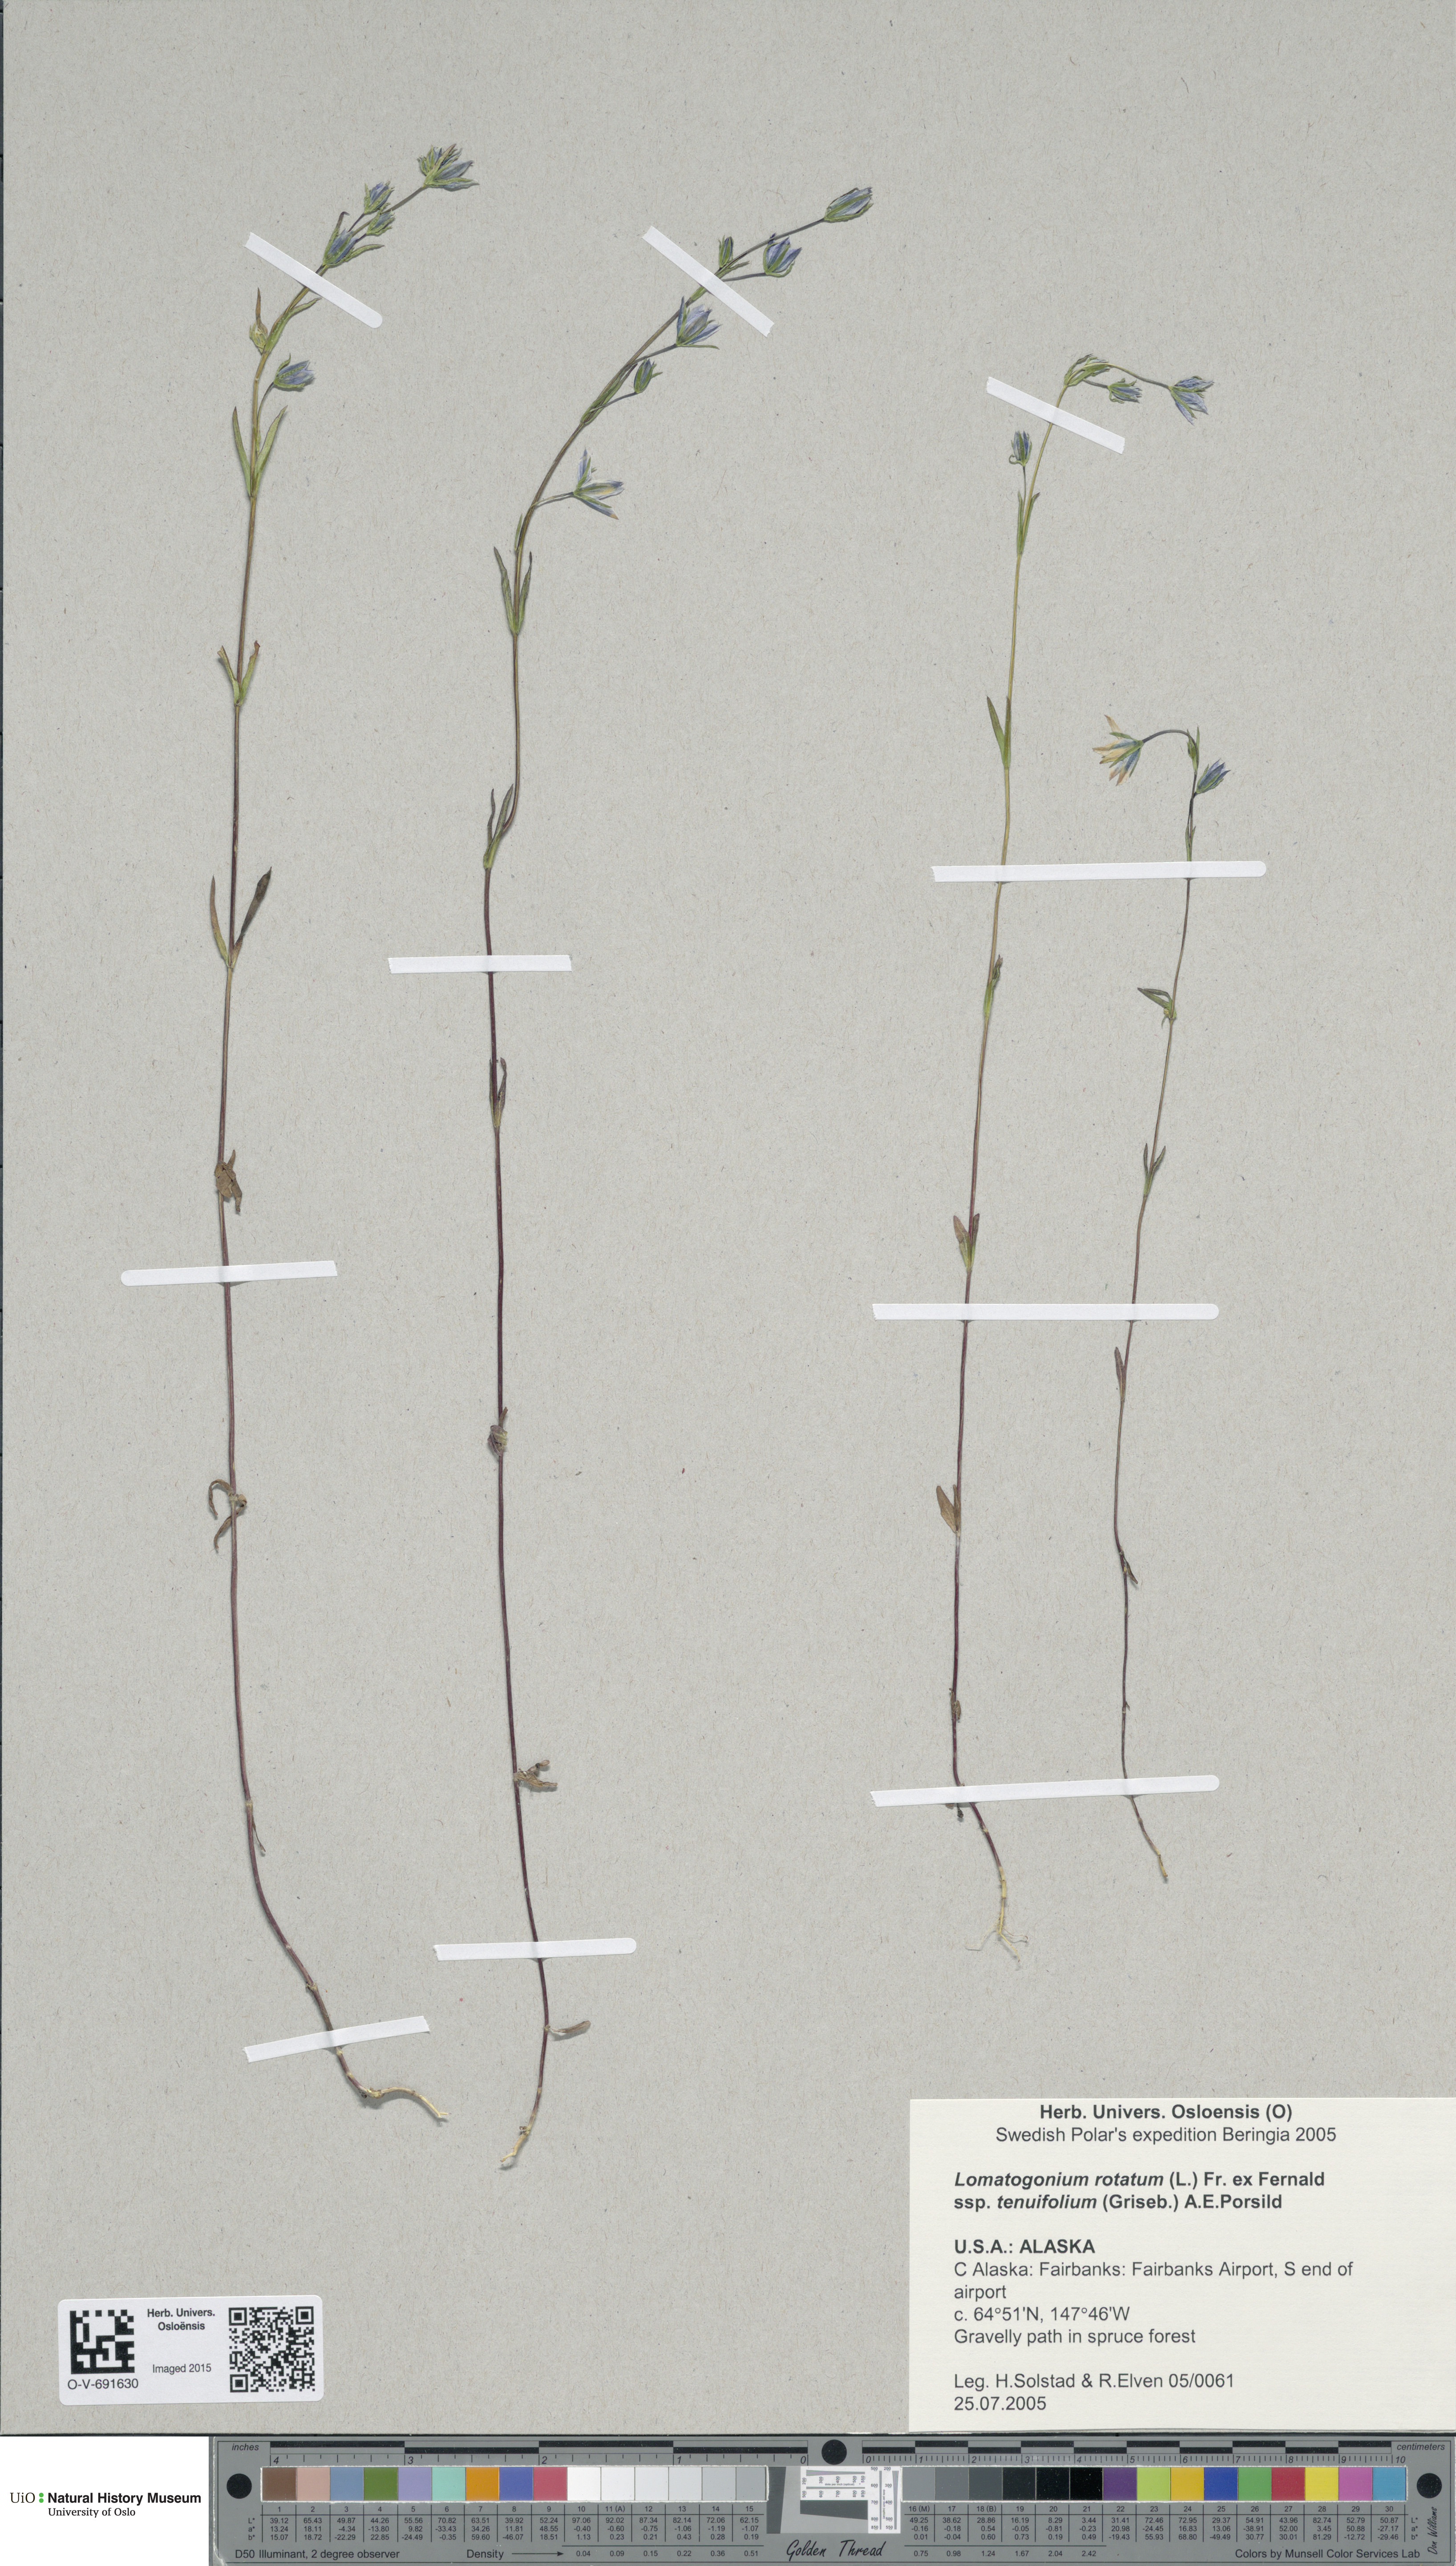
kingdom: Plantae
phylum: Tracheophyta
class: Magnoliopsida
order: Gentianales
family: Gentianaceae
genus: Lomatogonium
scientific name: Lomatogonium rotatum
